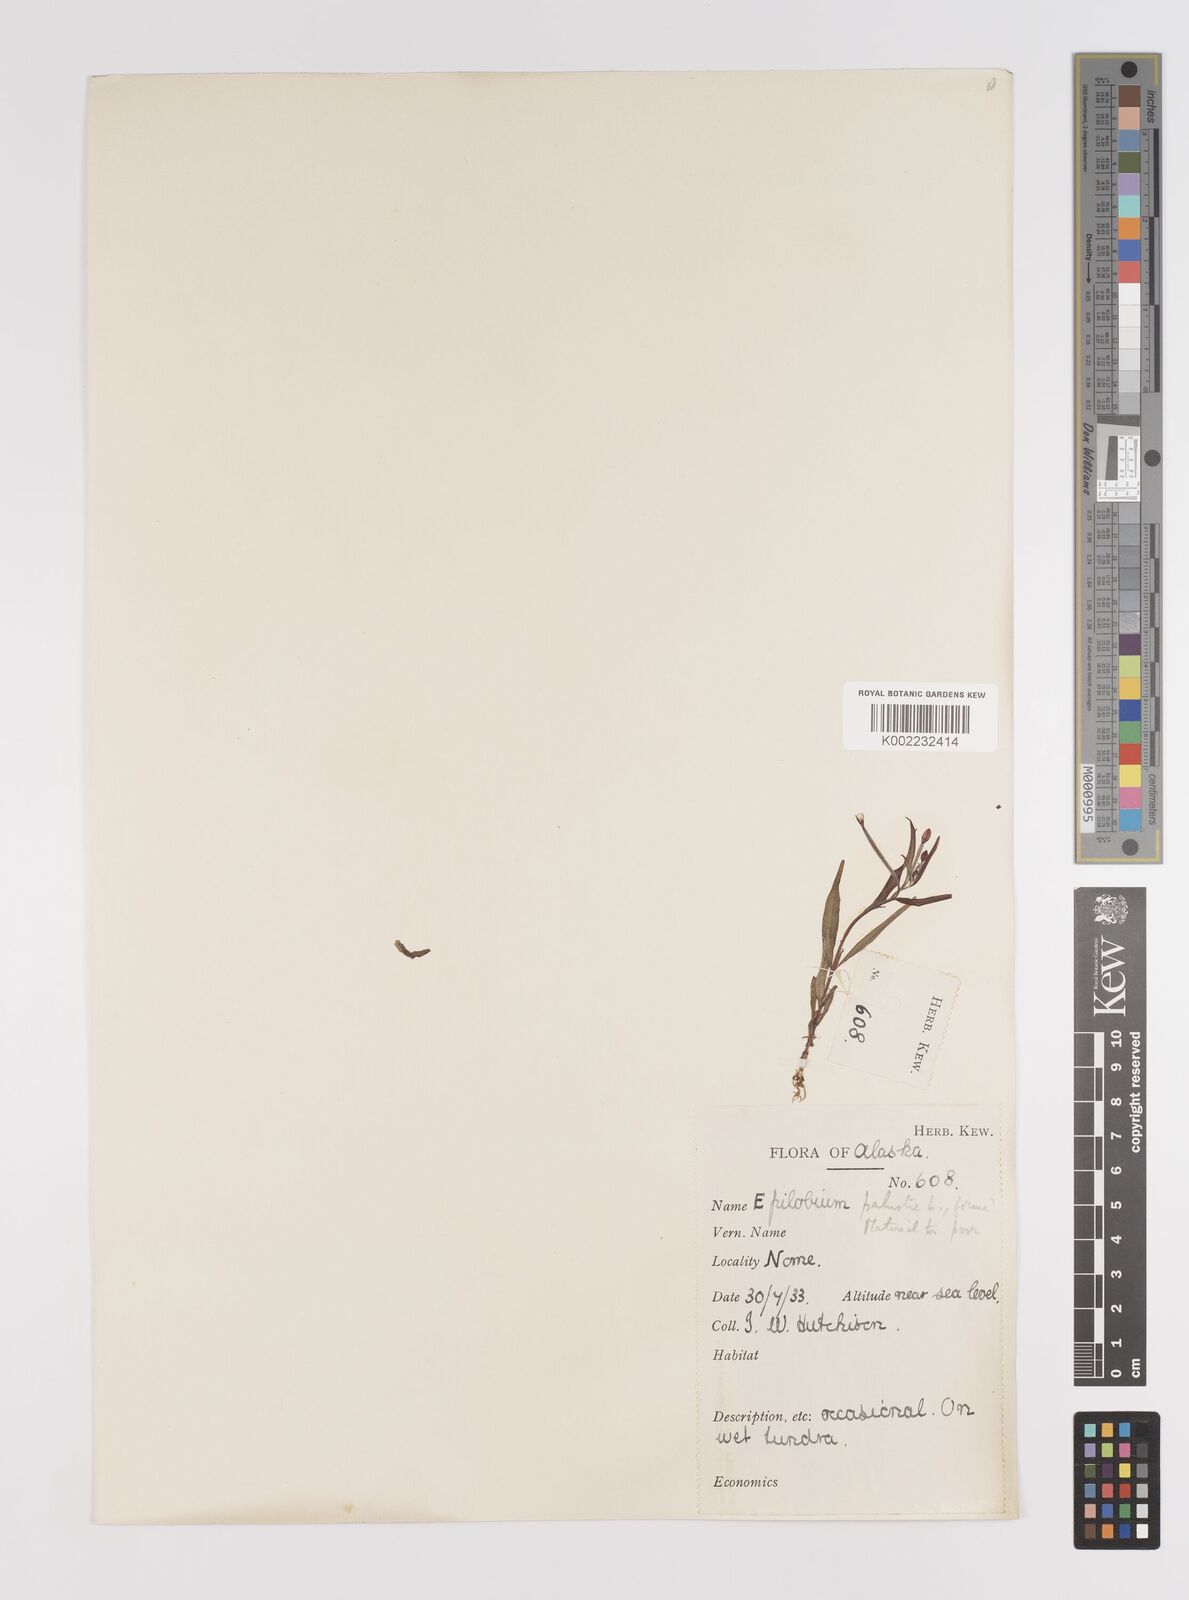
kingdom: Plantae
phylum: Tracheophyta
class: Magnoliopsida
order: Myrtales
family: Onagraceae
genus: Epilobium
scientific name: Epilobium palustre
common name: Marsh willowherb
